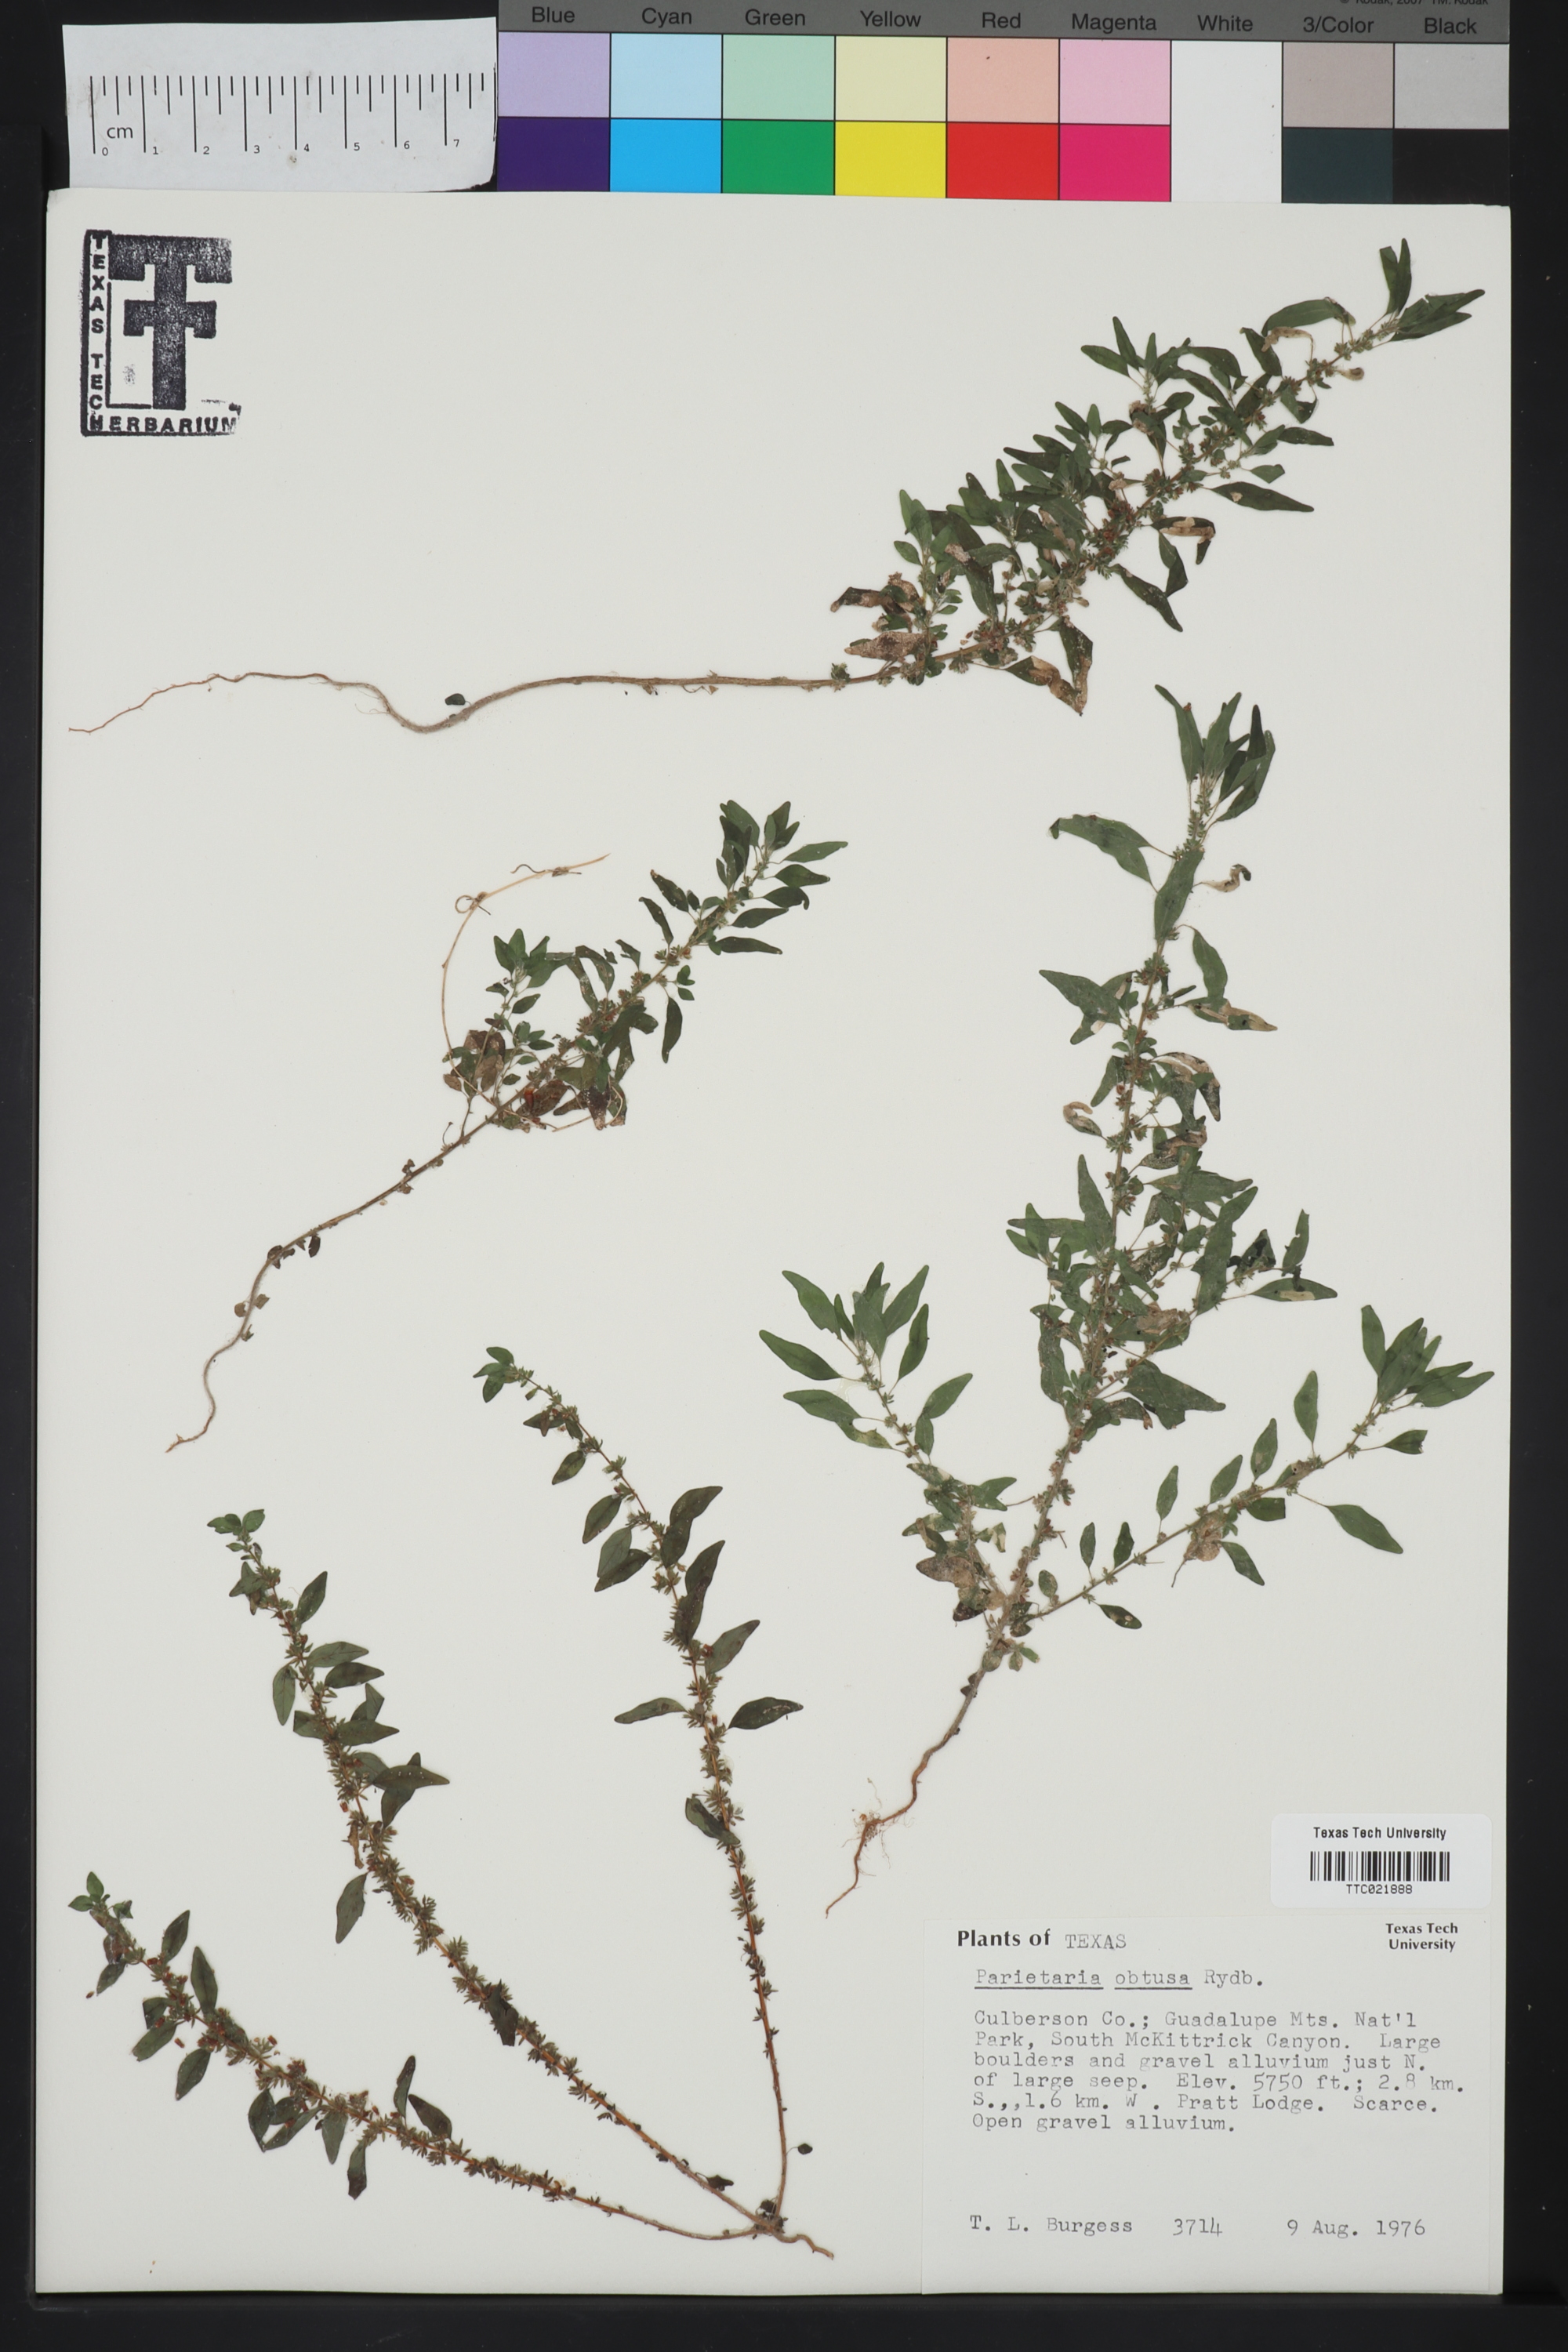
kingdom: Plantae
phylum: Tracheophyta
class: Magnoliopsida
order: Rosales
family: Urticaceae
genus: Parietaria
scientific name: Parietaria pensylvanica
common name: Pennsylvania pellitory
